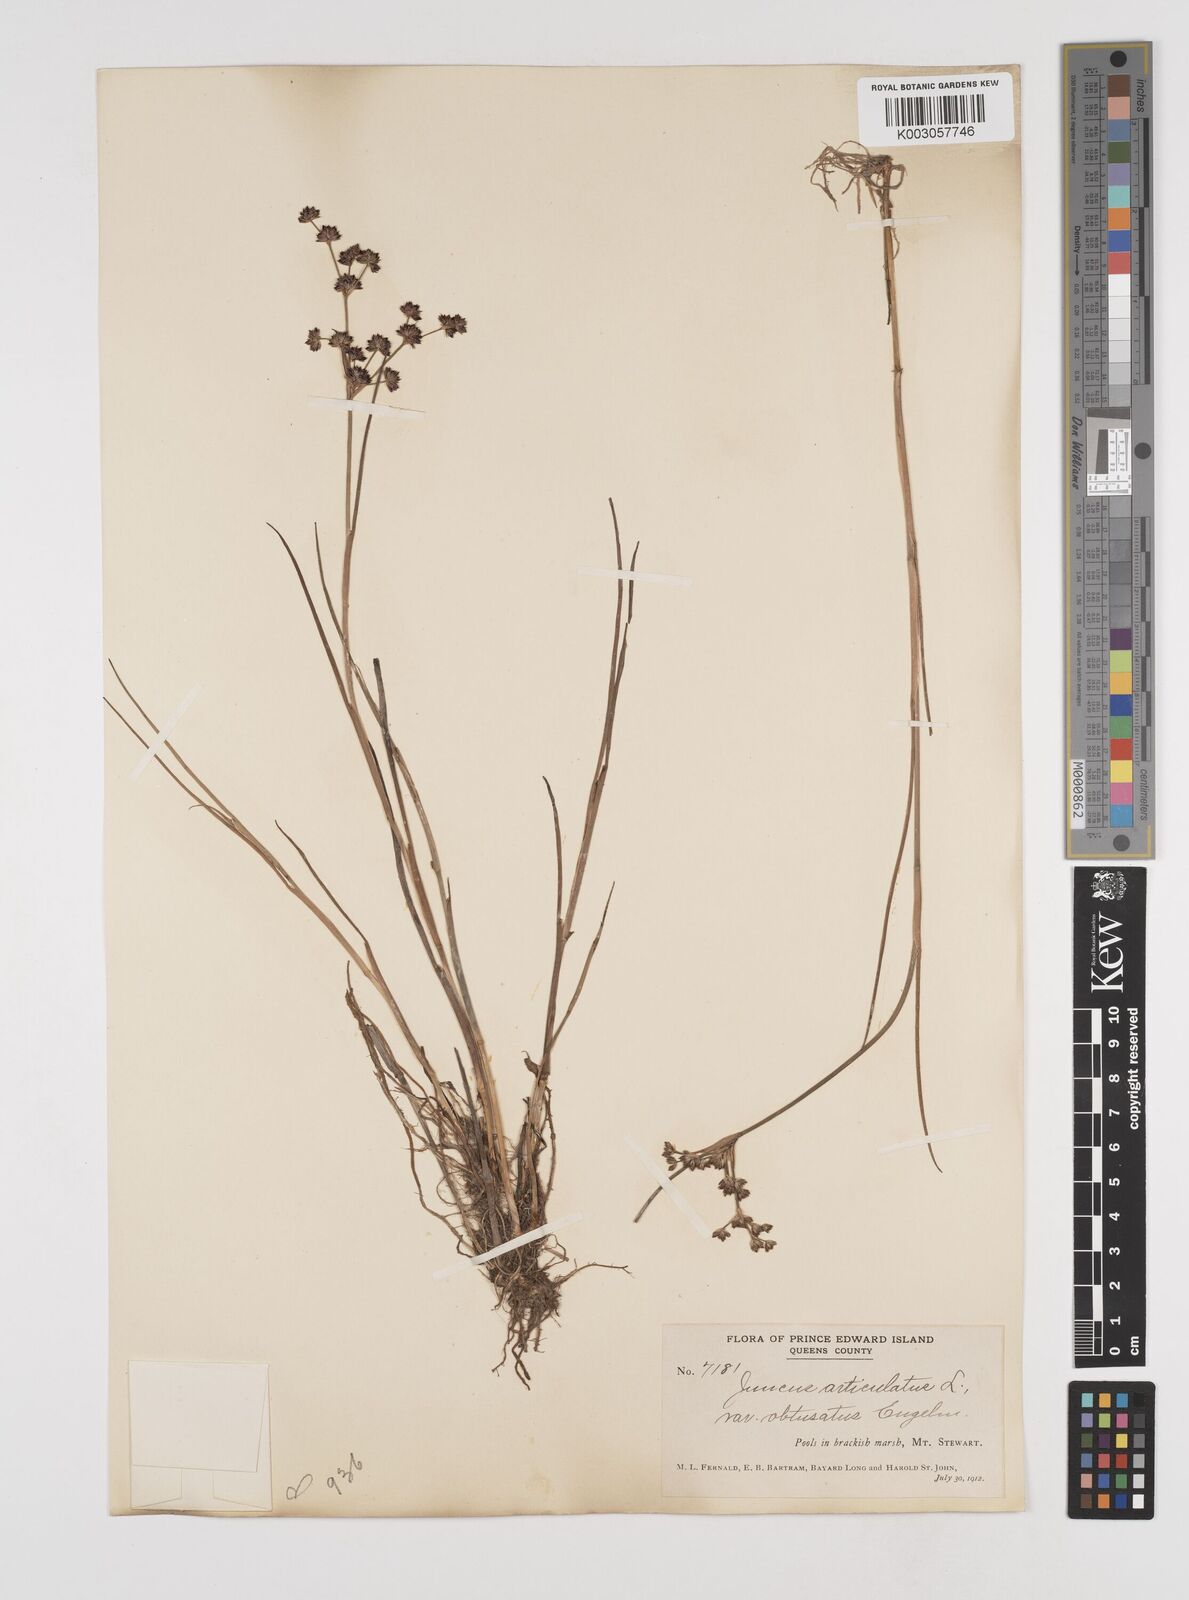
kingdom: Plantae
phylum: Tracheophyta
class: Liliopsida
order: Poales
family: Juncaceae
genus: Juncus
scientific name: Juncus articulatus
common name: Jointed rush
